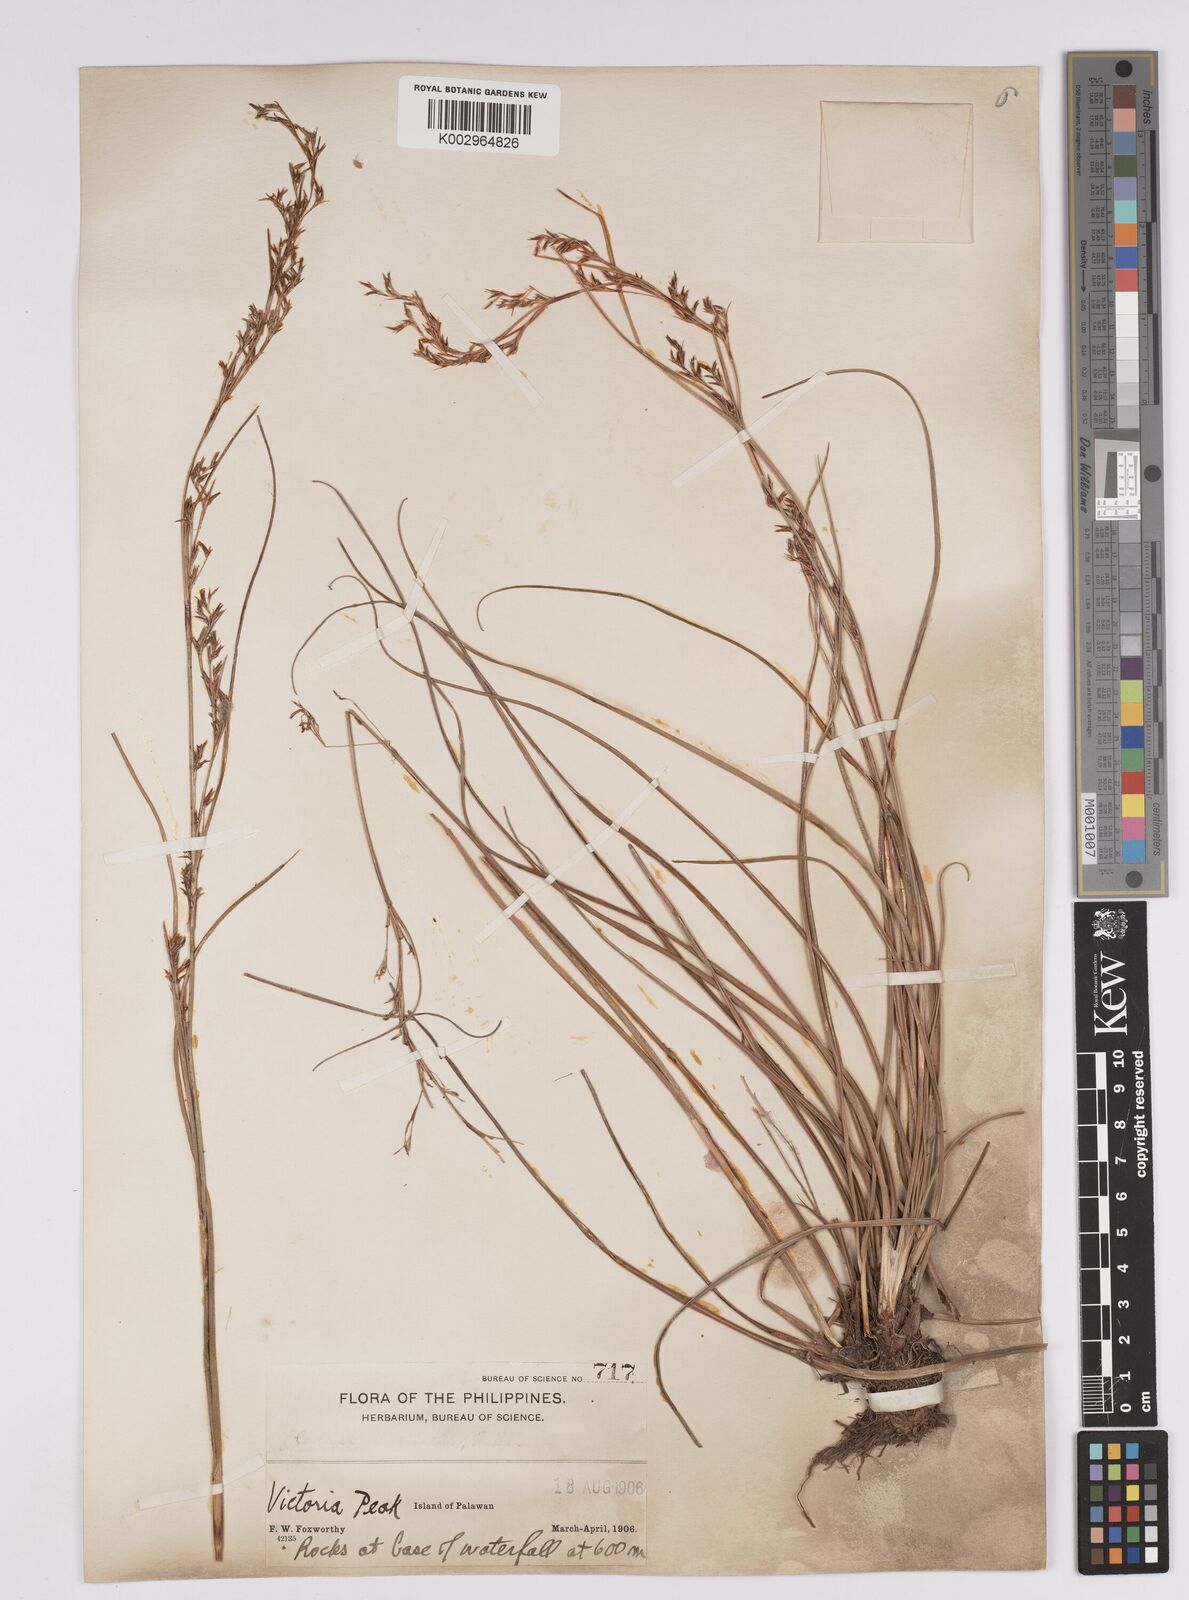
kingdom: Plantae
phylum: Tracheophyta
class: Liliopsida
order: Poales
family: Cyperaceae
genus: Scleria
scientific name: Scleria
